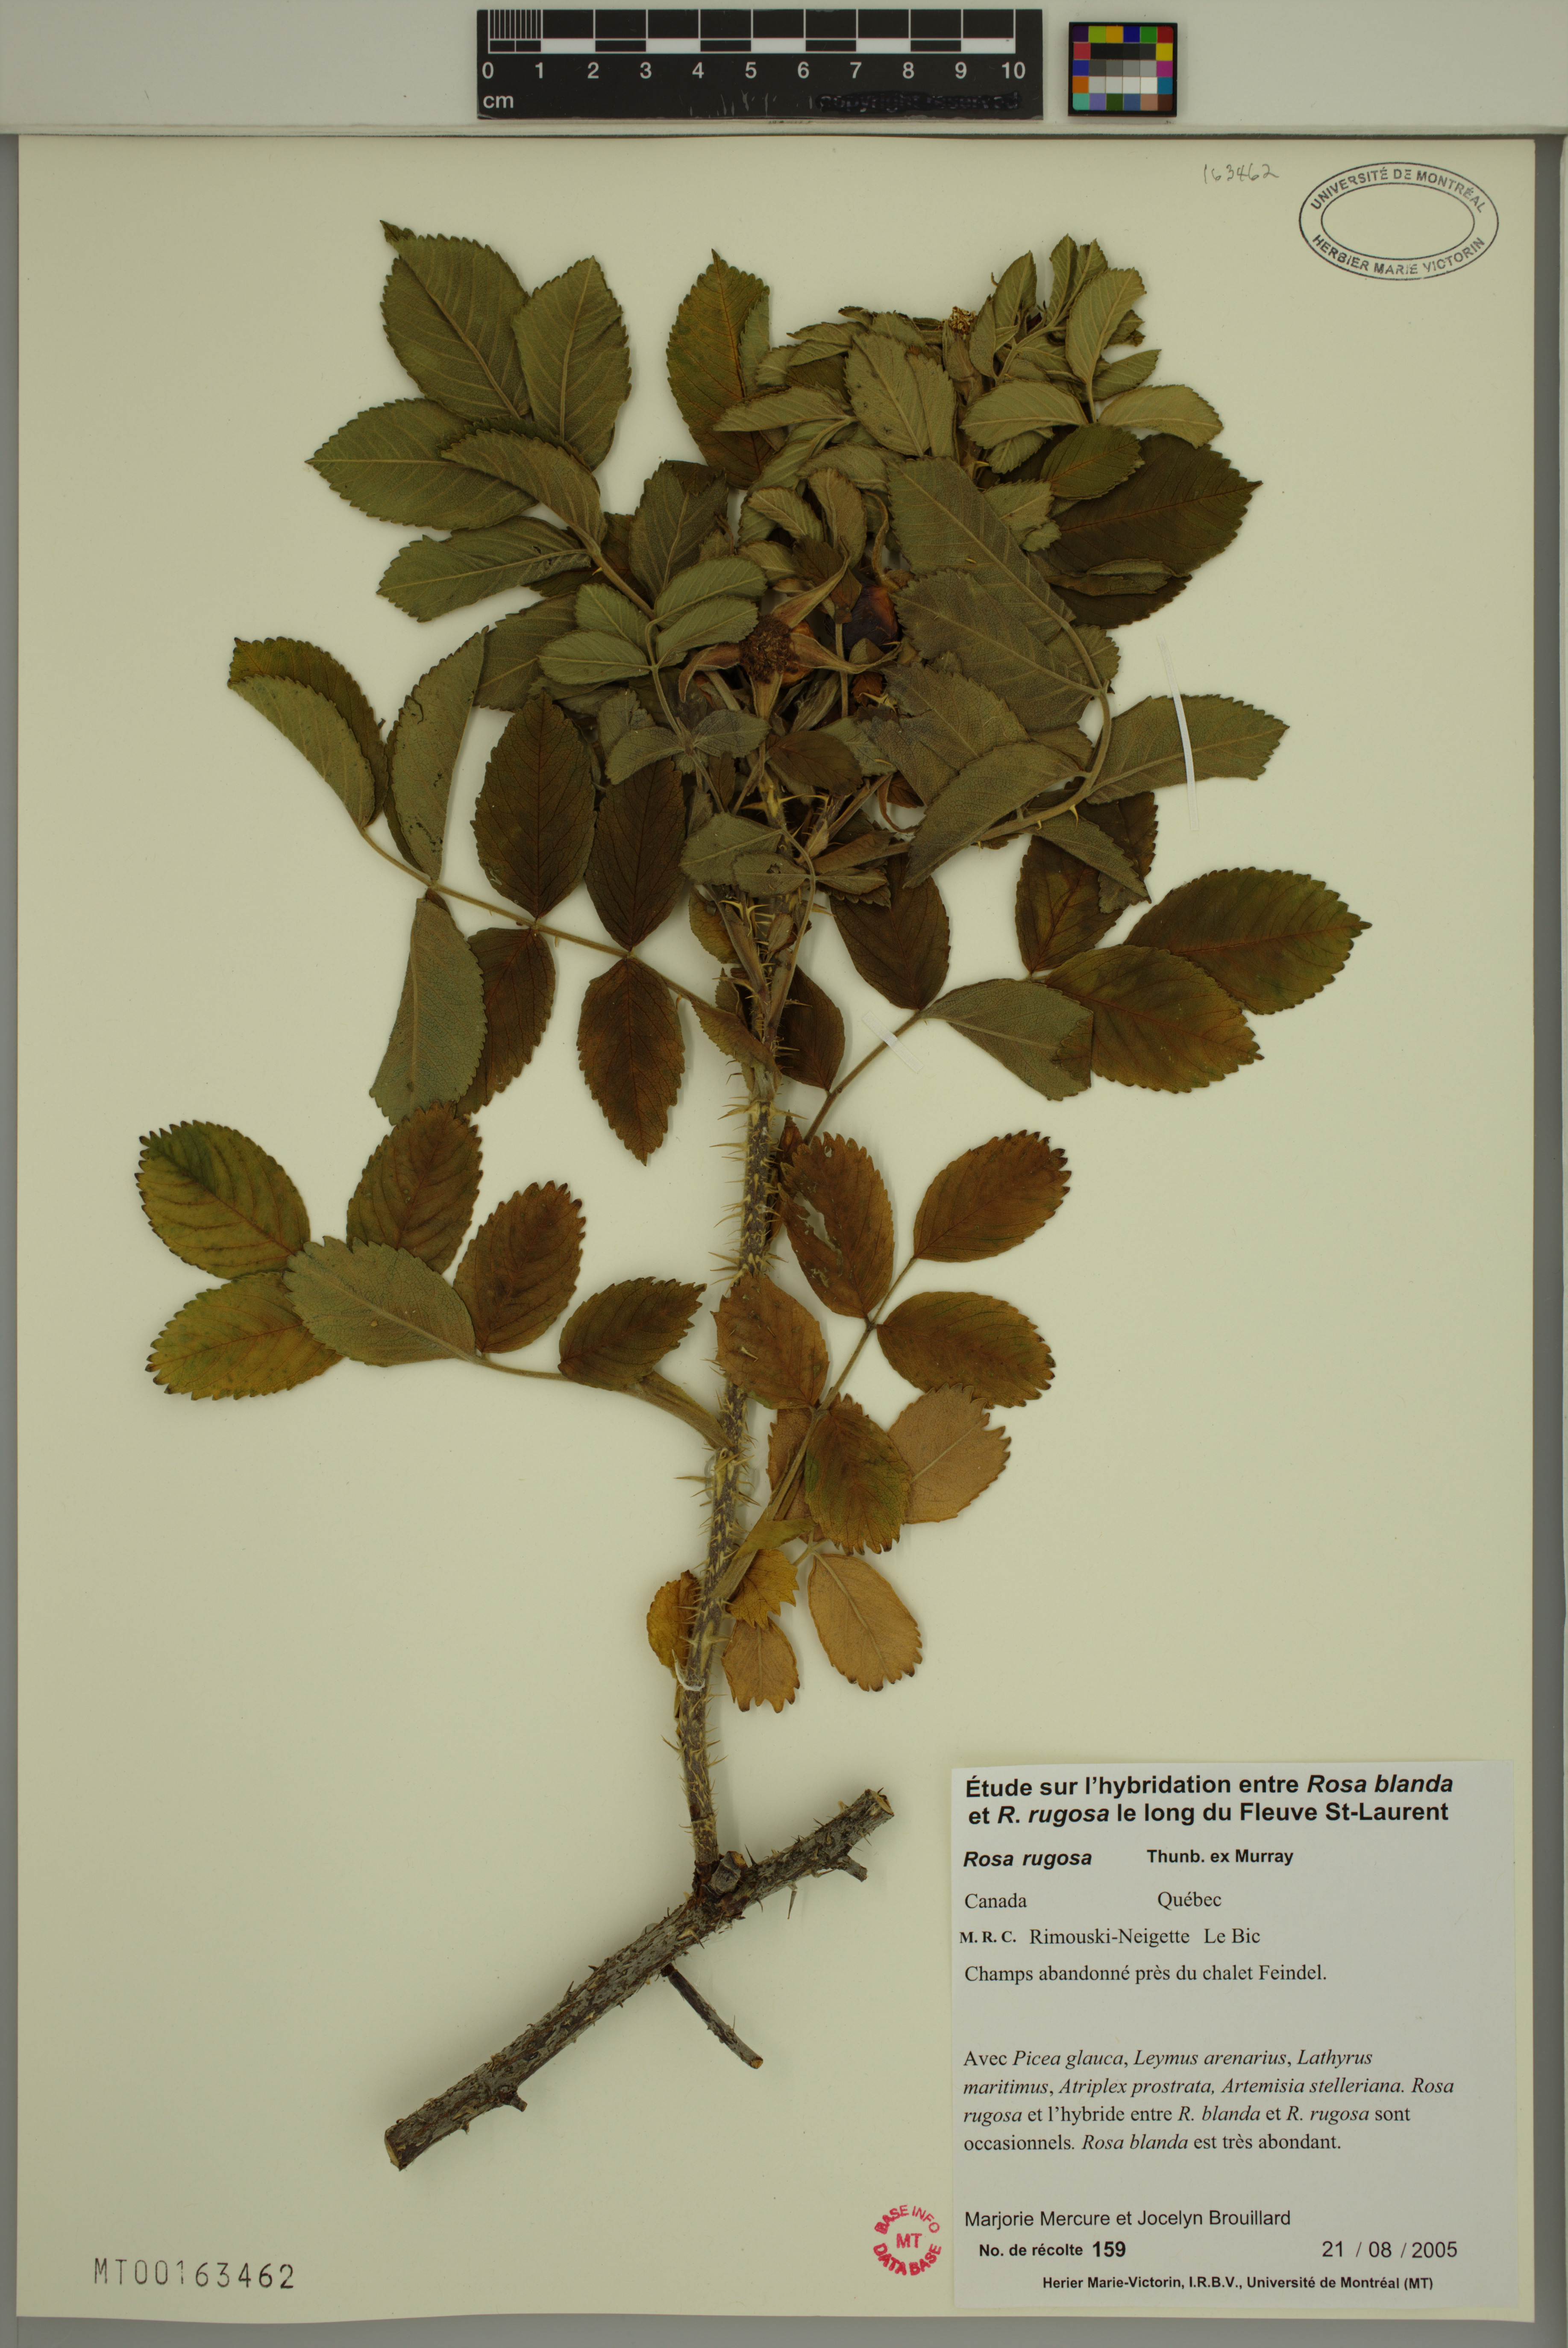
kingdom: Plantae
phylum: Tracheophyta
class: Magnoliopsida
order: Rosales
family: Rosaceae
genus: Rosa
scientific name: Rosa rugosa
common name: Japanese rose
